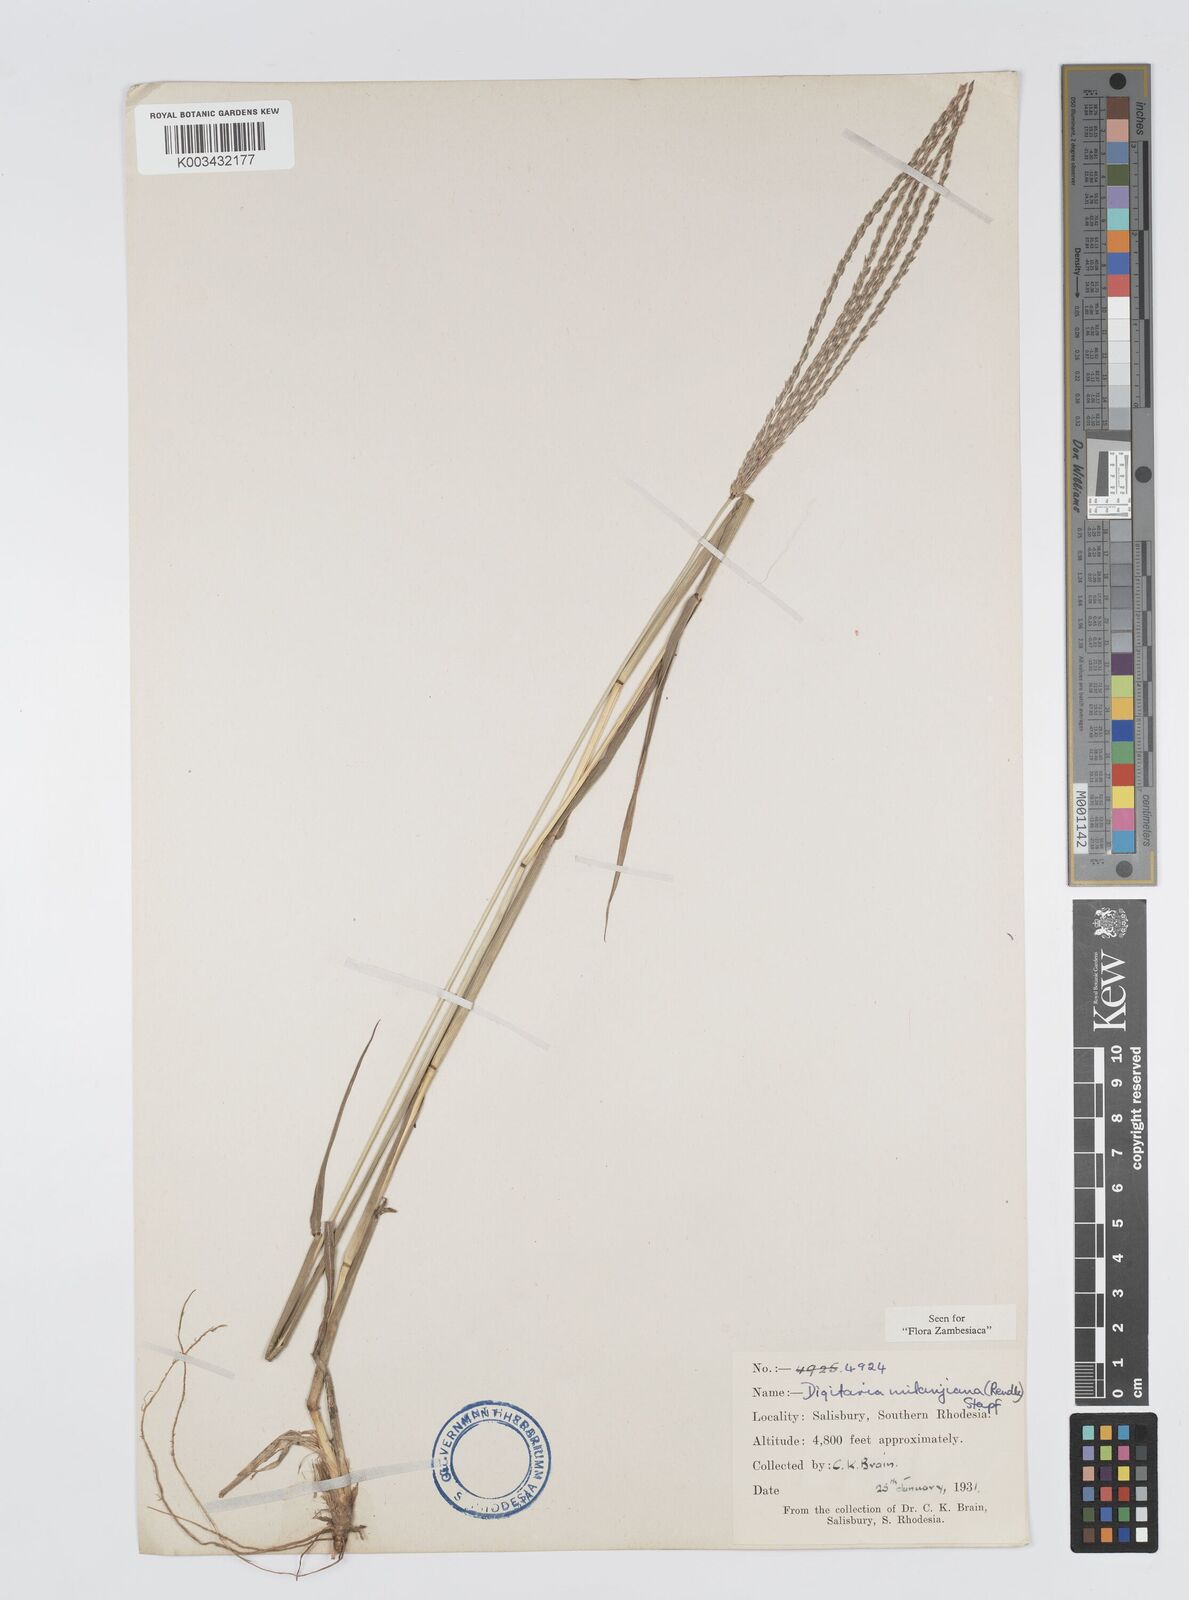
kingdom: Plantae
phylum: Tracheophyta
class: Liliopsida
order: Poales
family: Poaceae
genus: Digitaria
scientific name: Digitaria milanjiana
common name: Madagascar crabgrass
